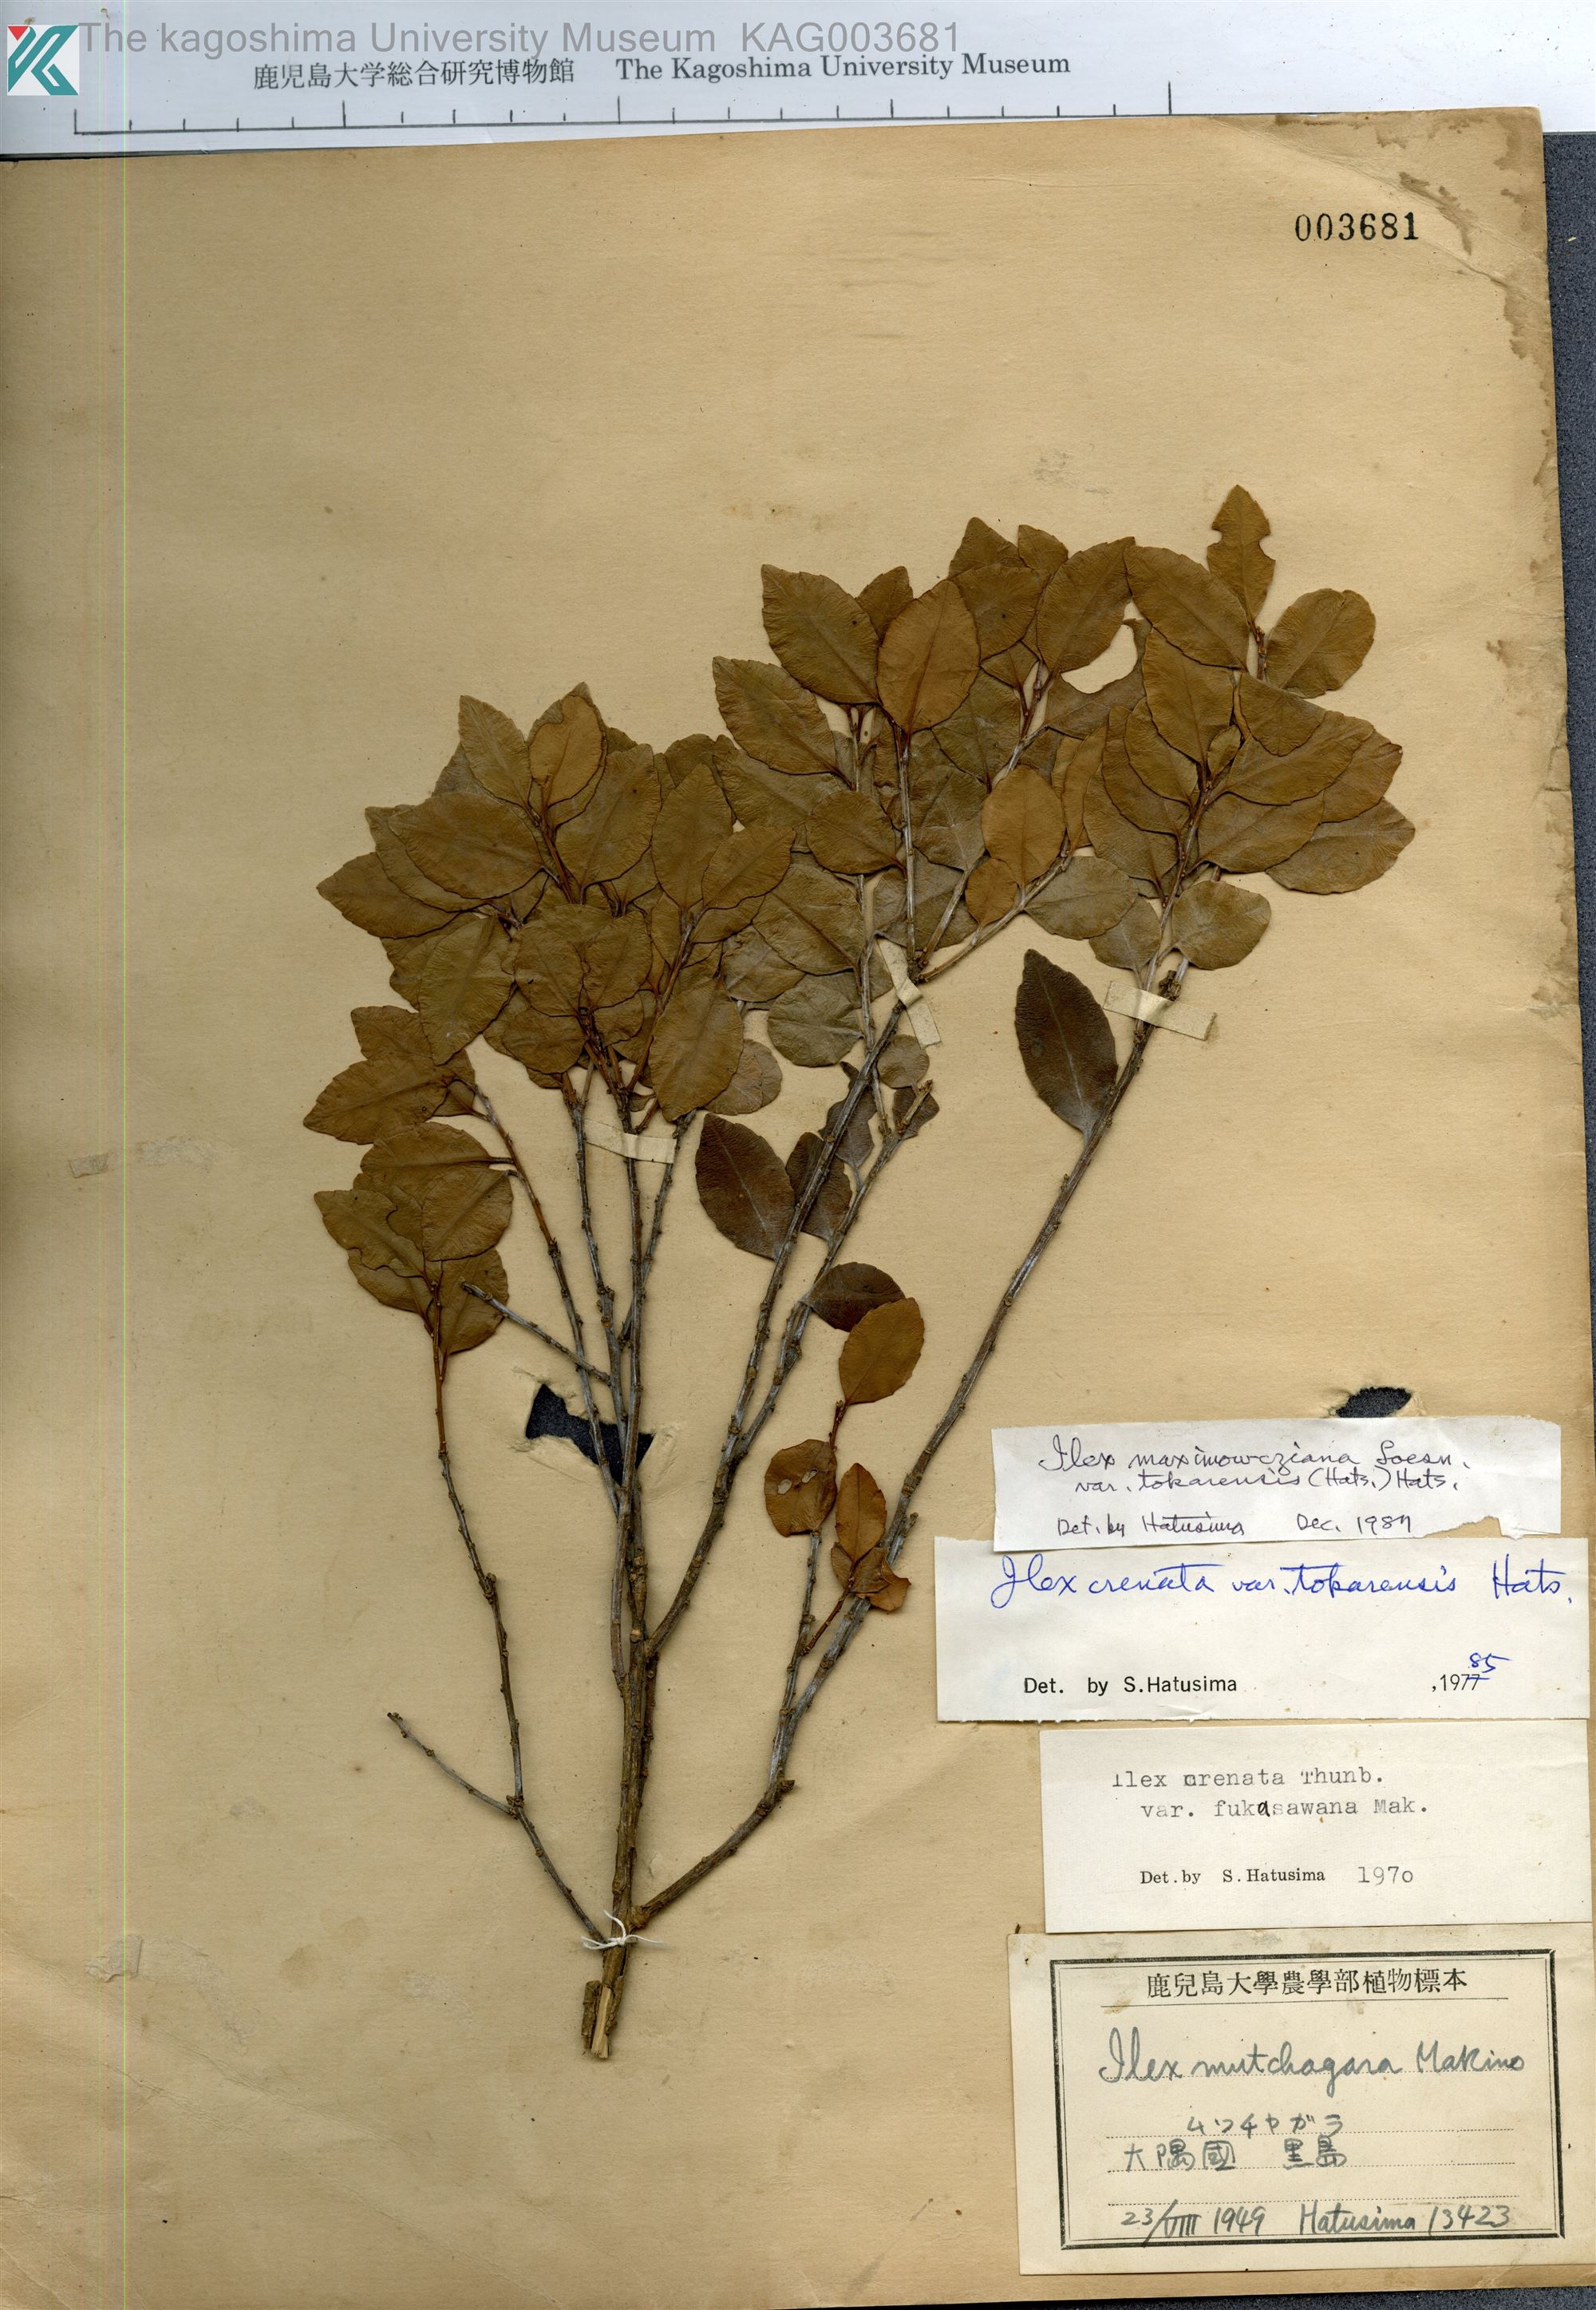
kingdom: Plantae
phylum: Tracheophyta
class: Magnoliopsida
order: Aquifoliales
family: Aquifoliaceae
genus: Ilex
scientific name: Ilex crenata
